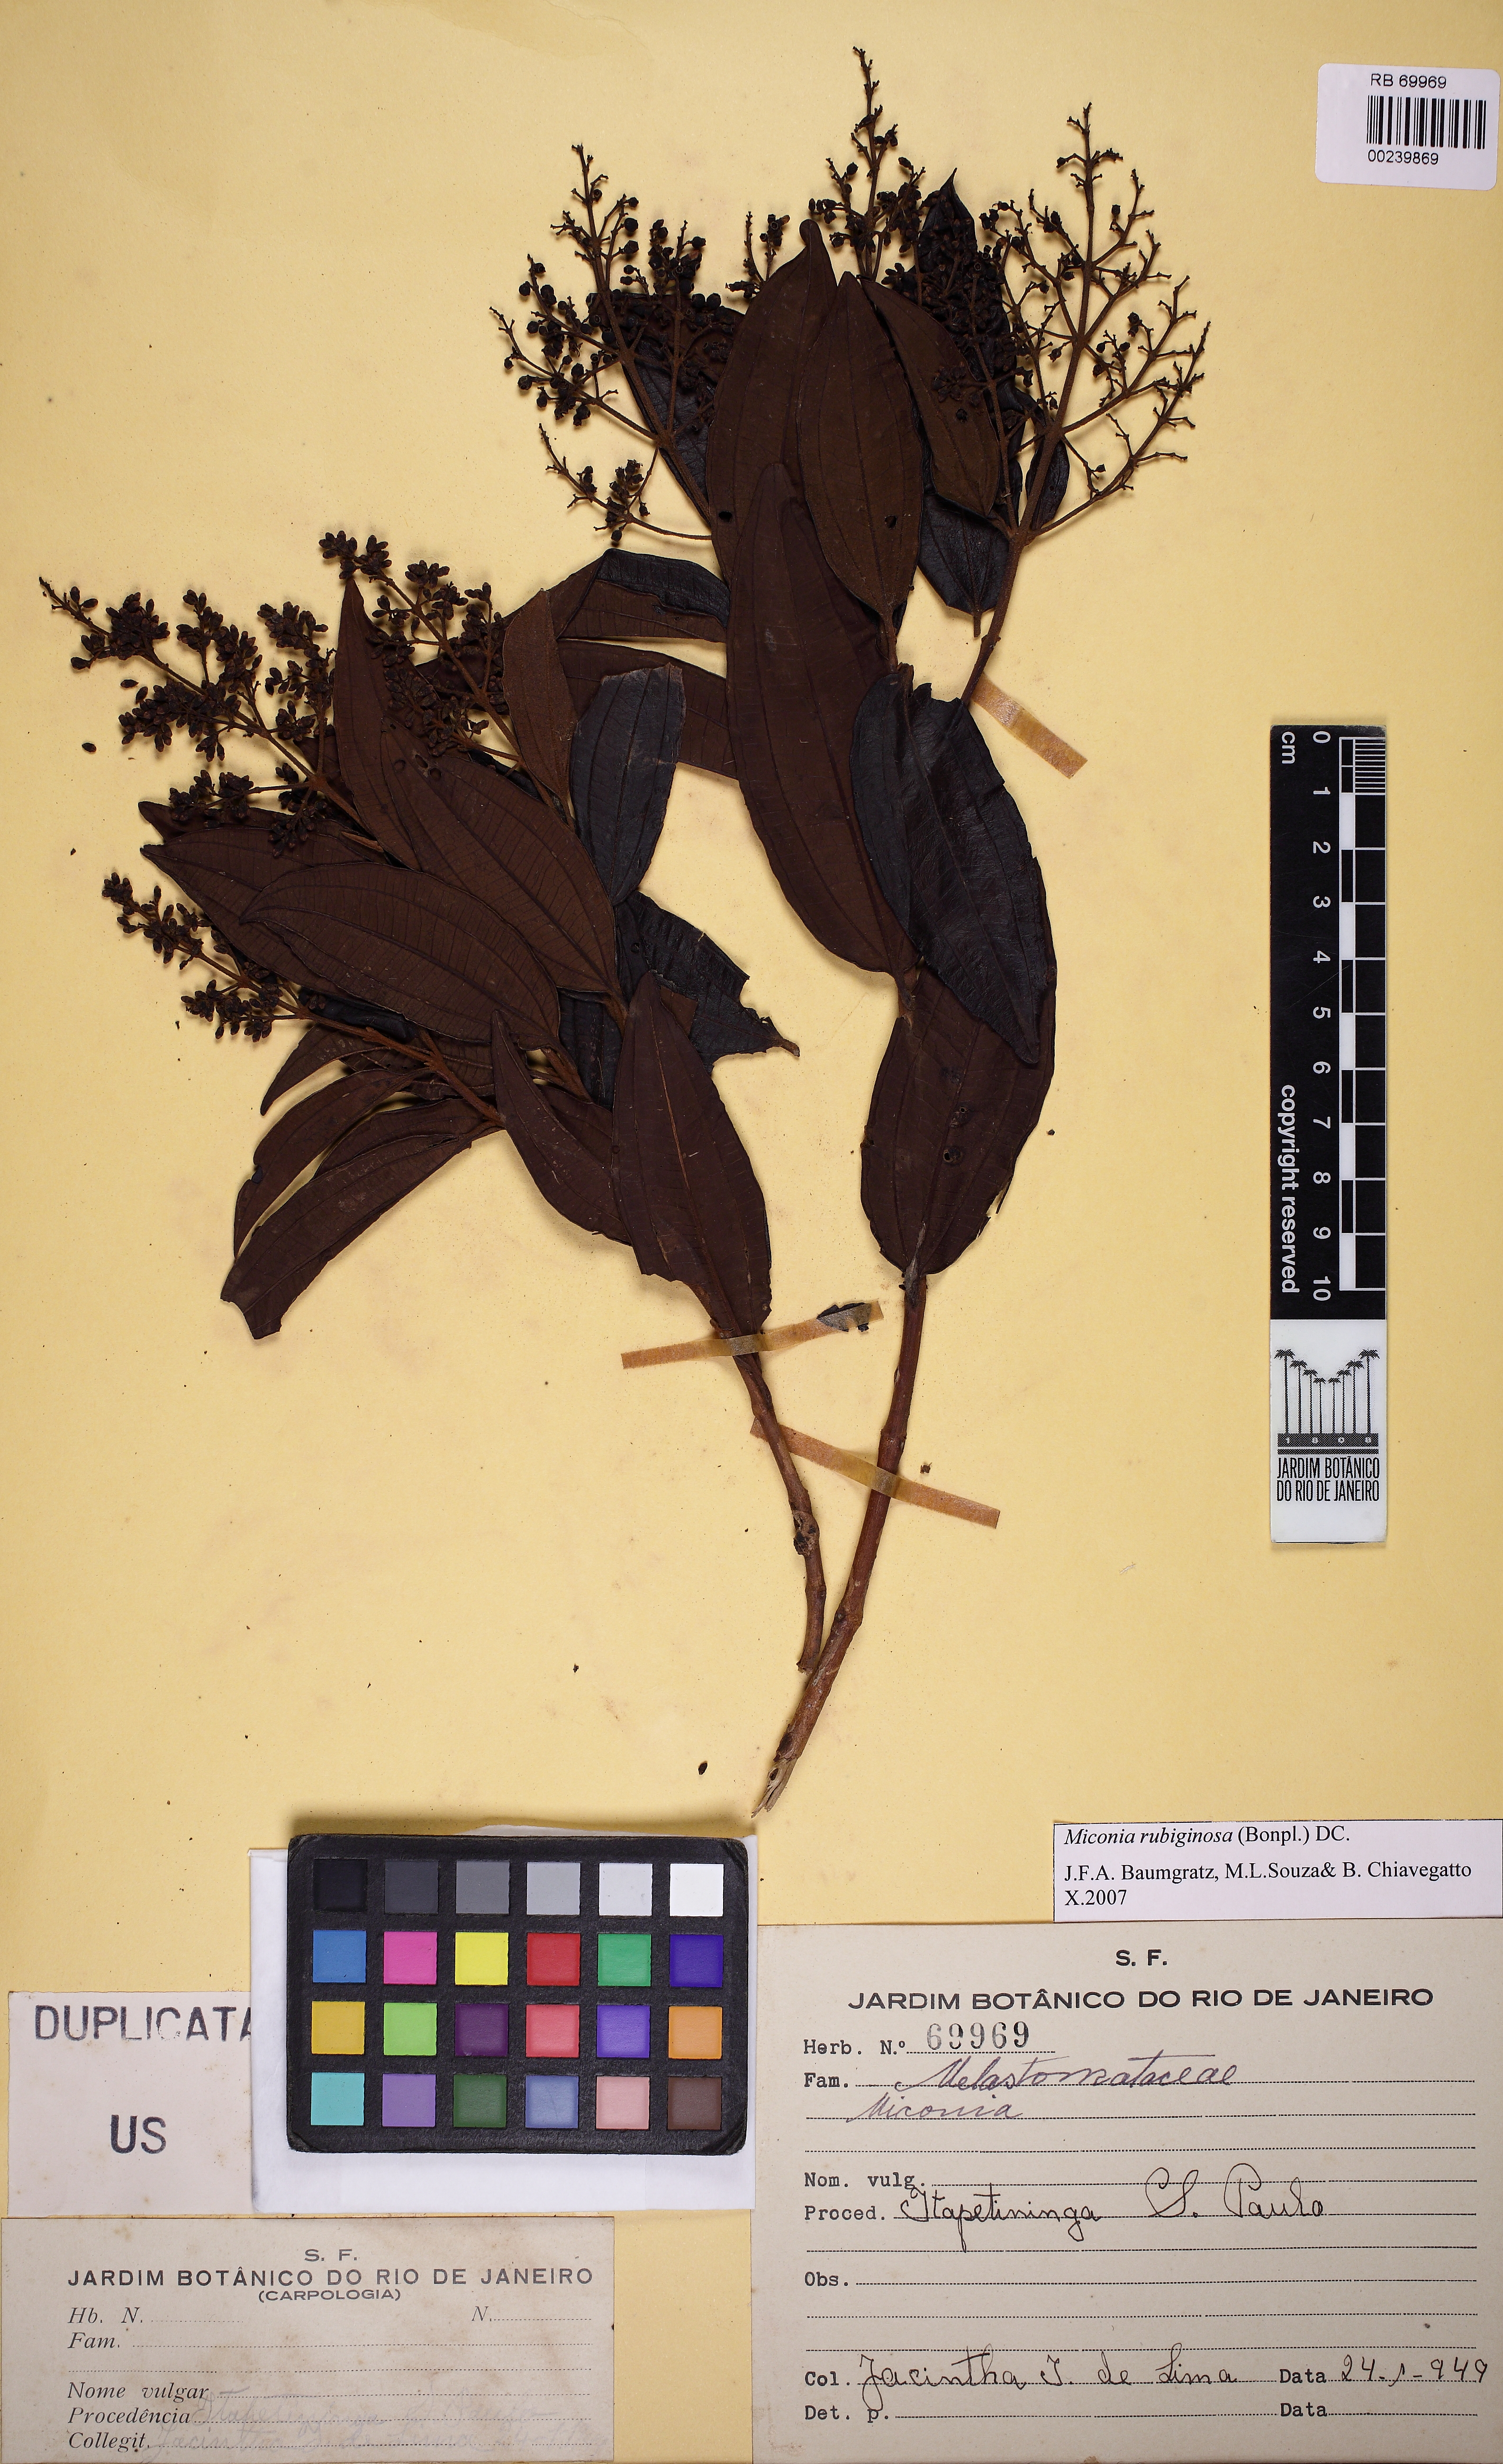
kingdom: Plantae
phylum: Tracheophyta
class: Magnoliopsida
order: Myrtales
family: Melastomataceae
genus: Miconia
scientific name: Miconia rubiginosa
